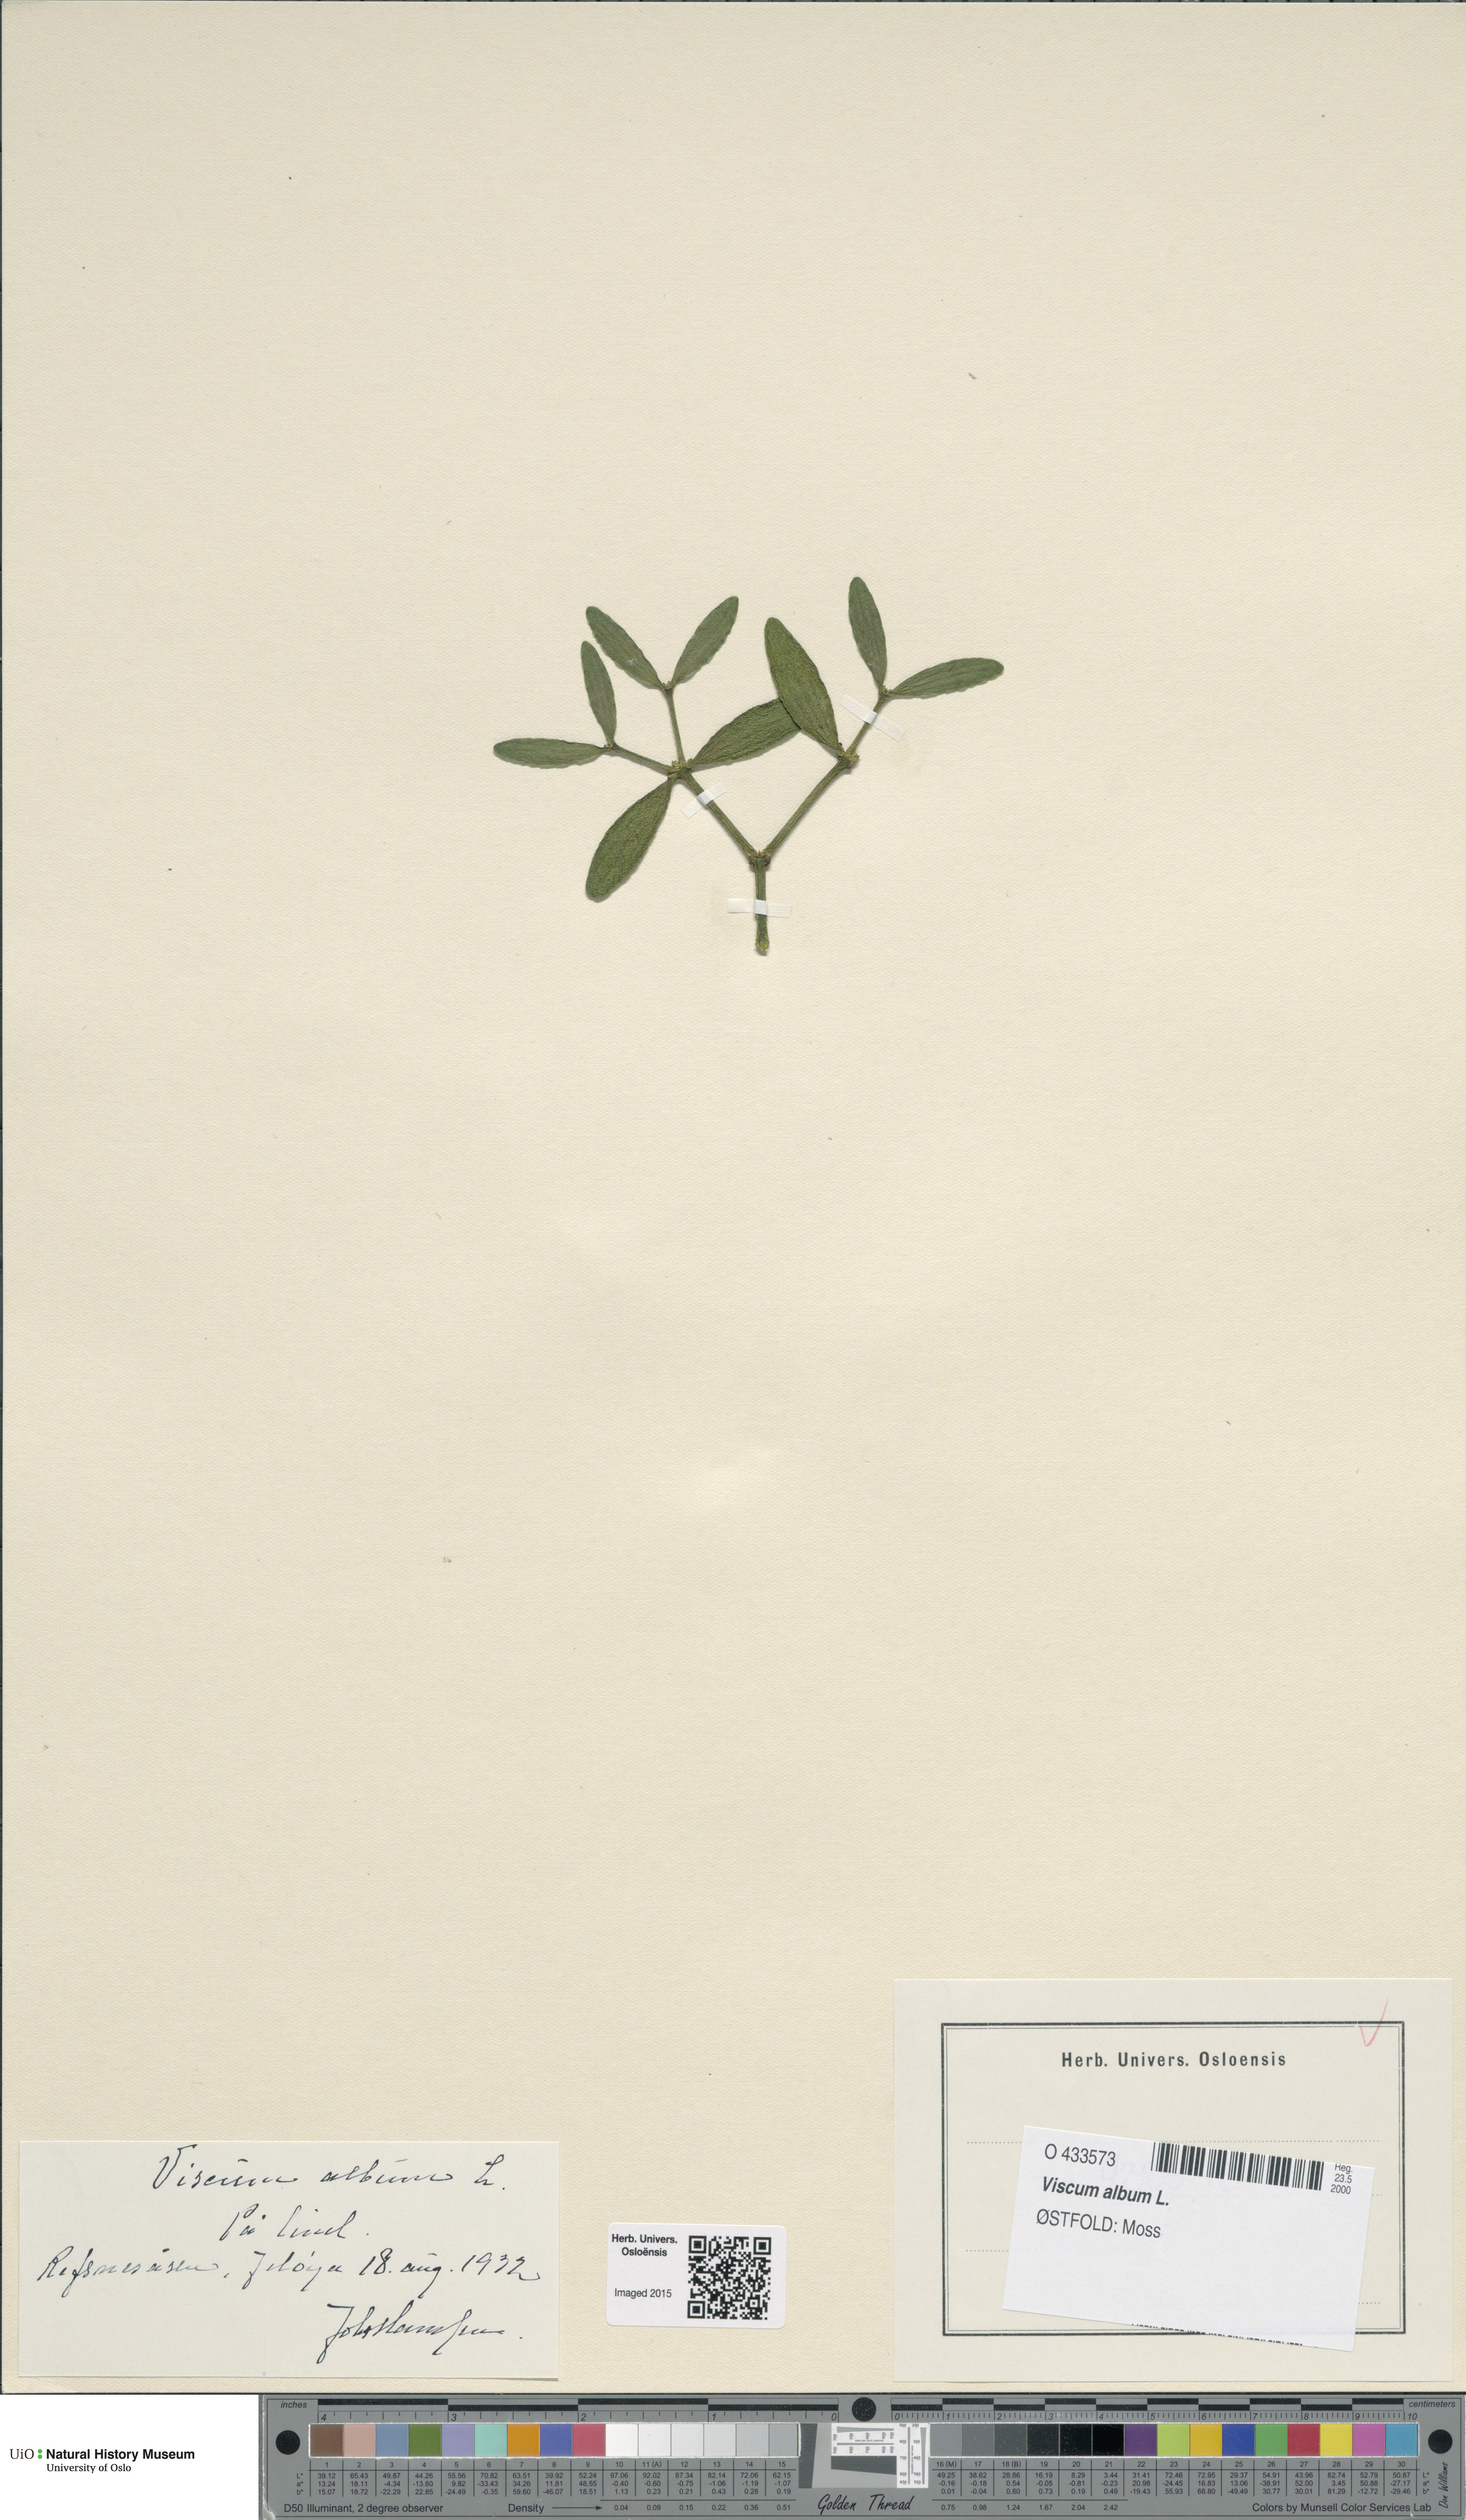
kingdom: Plantae
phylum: Tracheophyta
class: Magnoliopsida
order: Santalales
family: Viscaceae
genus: Viscum
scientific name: Viscum album
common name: Mistletoe
